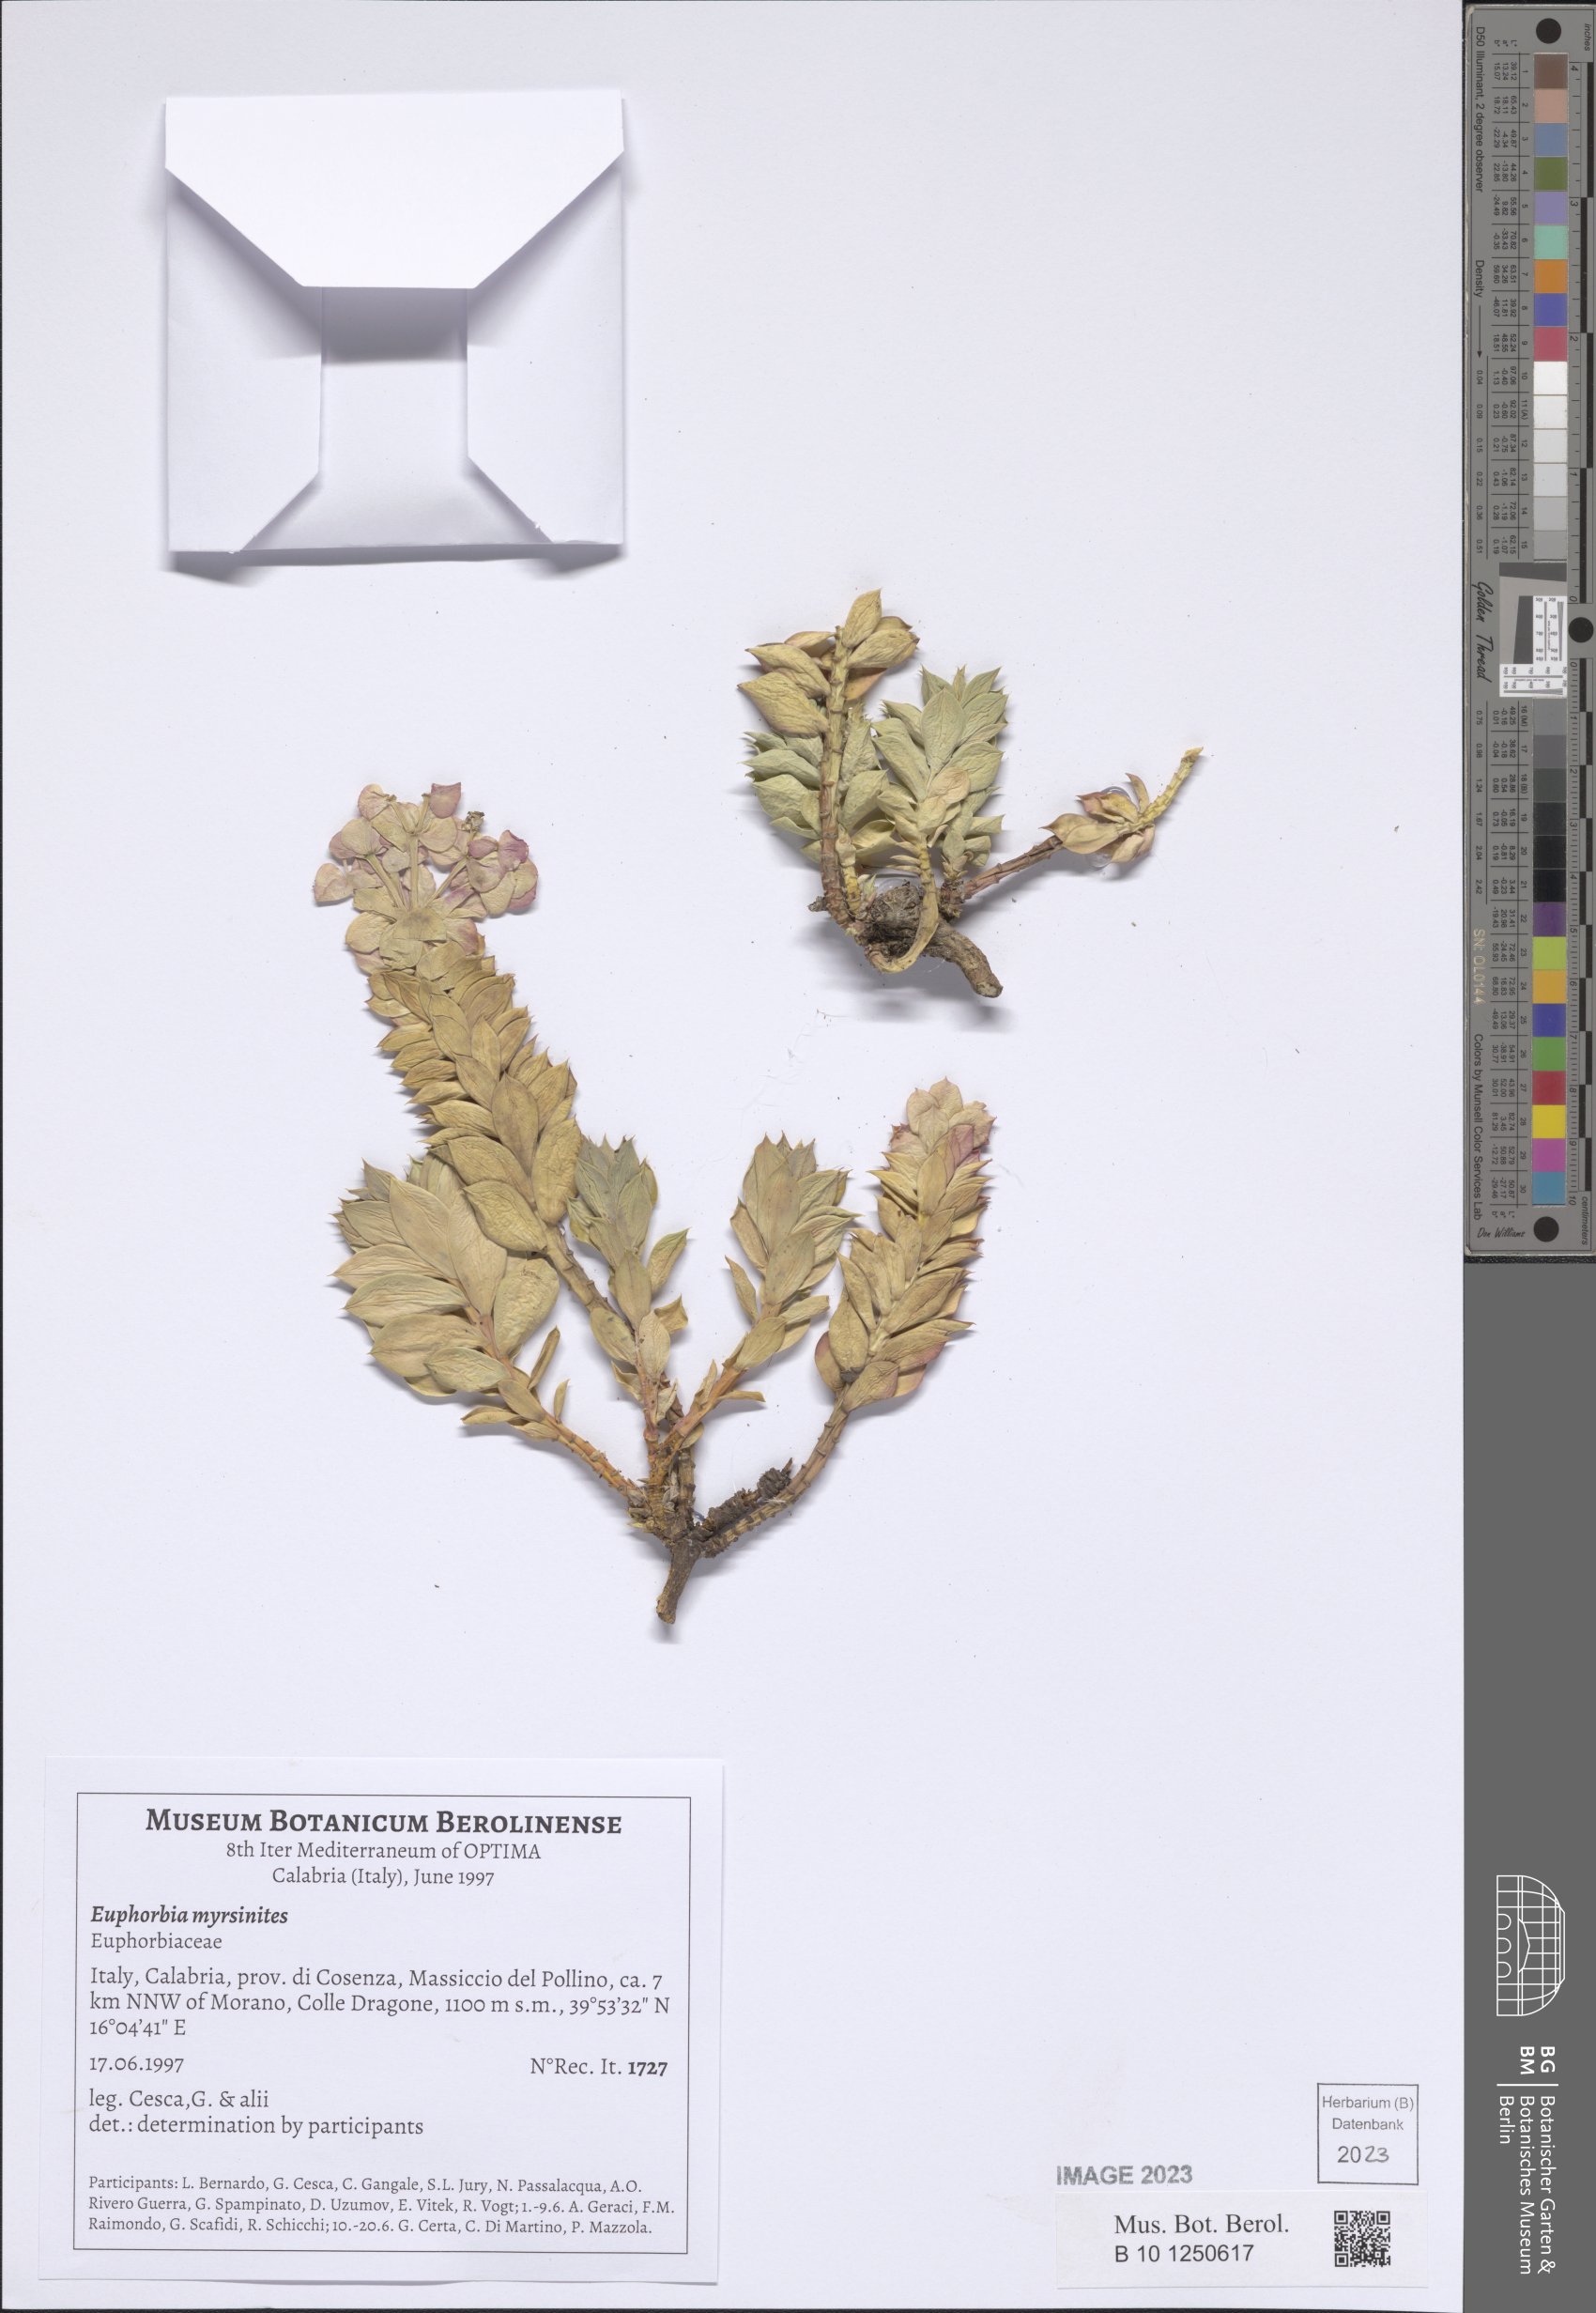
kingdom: Plantae
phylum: Tracheophyta
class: Magnoliopsida
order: Malpighiales
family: Euphorbiaceae
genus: Euphorbia
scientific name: Euphorbia myrsinites
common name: Myrtle spurge
